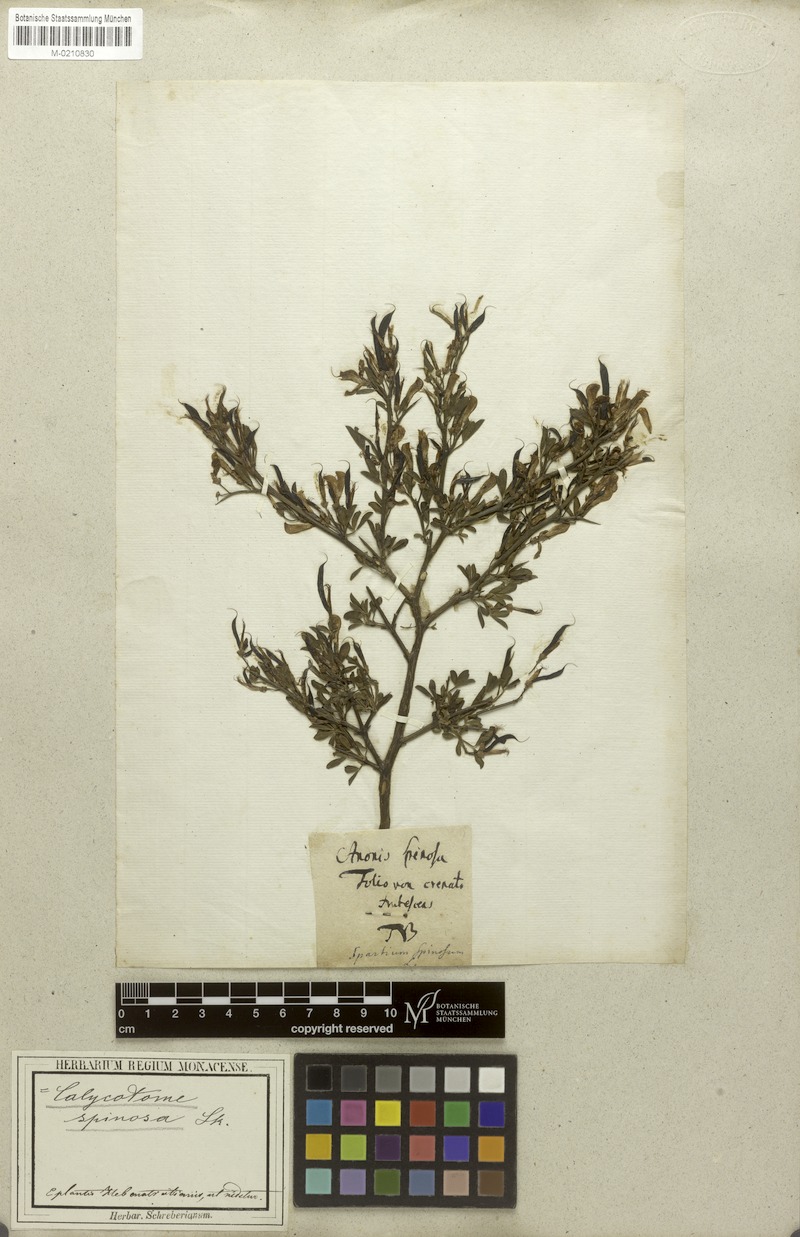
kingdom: Plantae
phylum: Tracheophyta
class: Magnoliopsida
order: Fabales
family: Fabaceae
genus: Calicotome
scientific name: Calicotome spinosa
